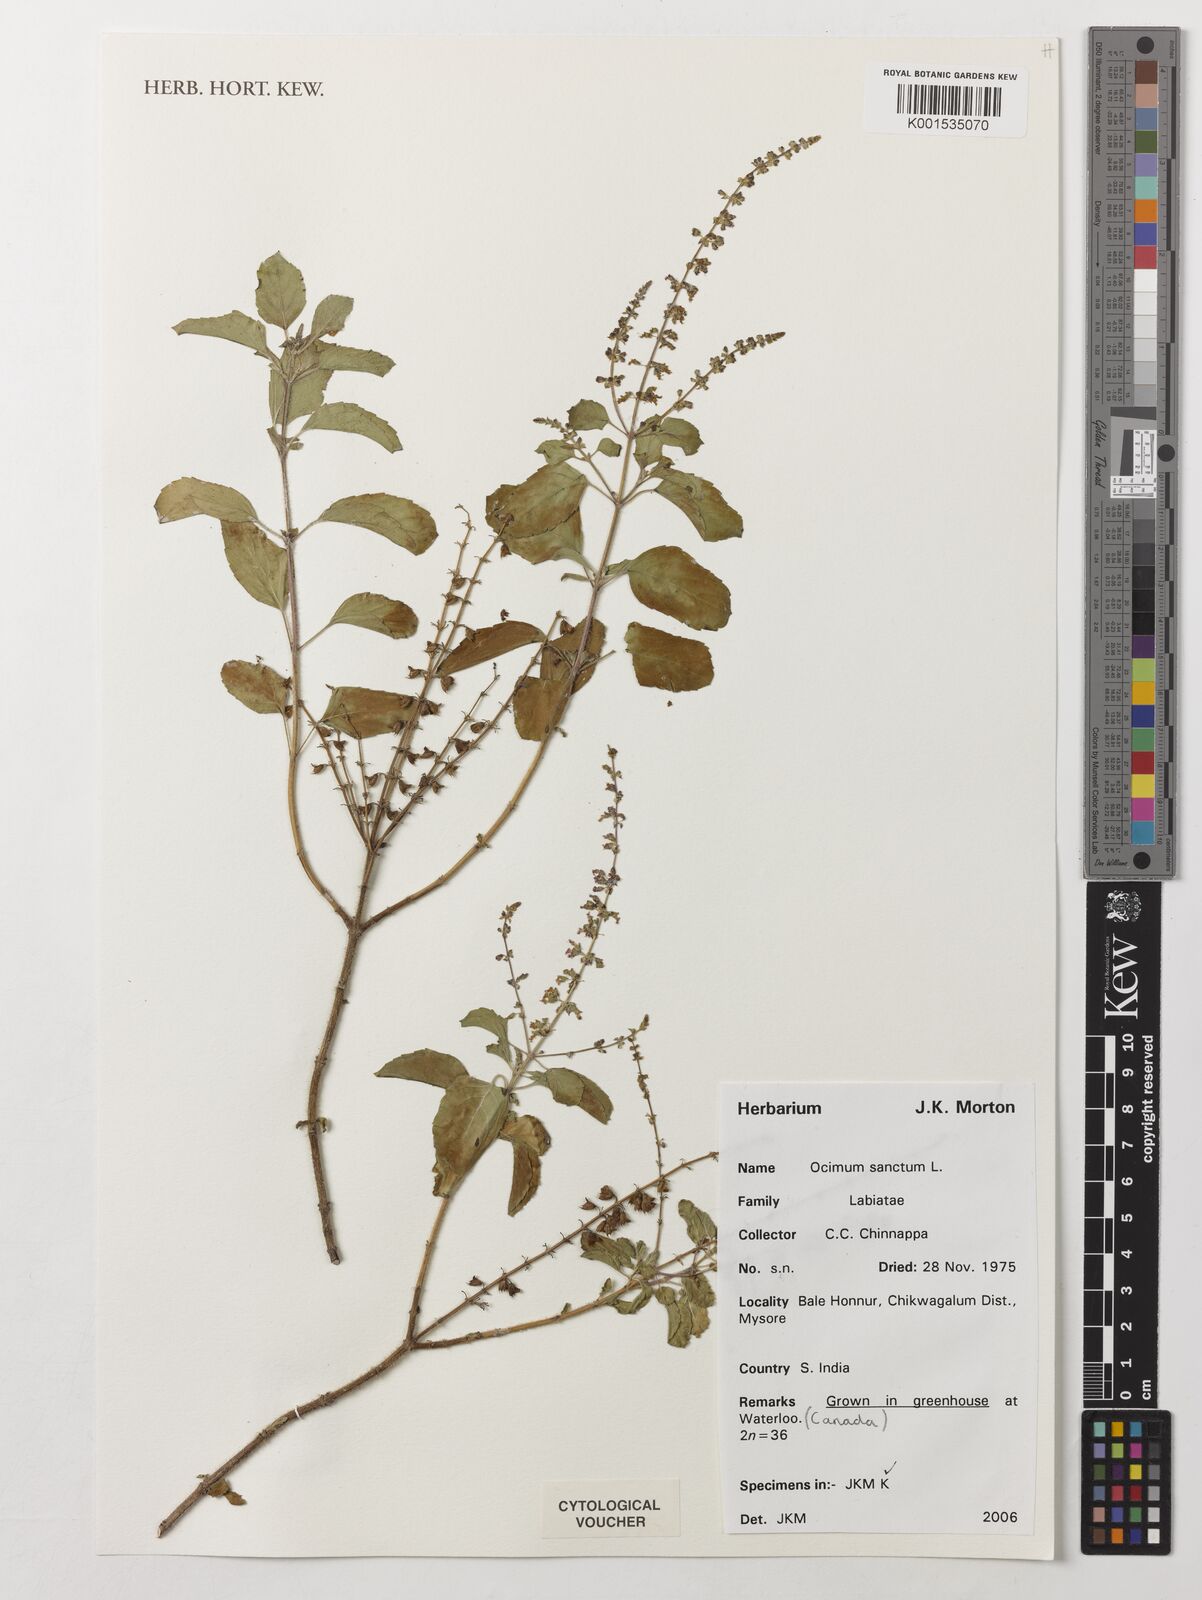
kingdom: Plantae
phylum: Tracheophyta
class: Magnoliopsida
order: Lamiales
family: Lamiaceae
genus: Ocimum
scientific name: Ocimum tenuiflorum
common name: Sacred basil
